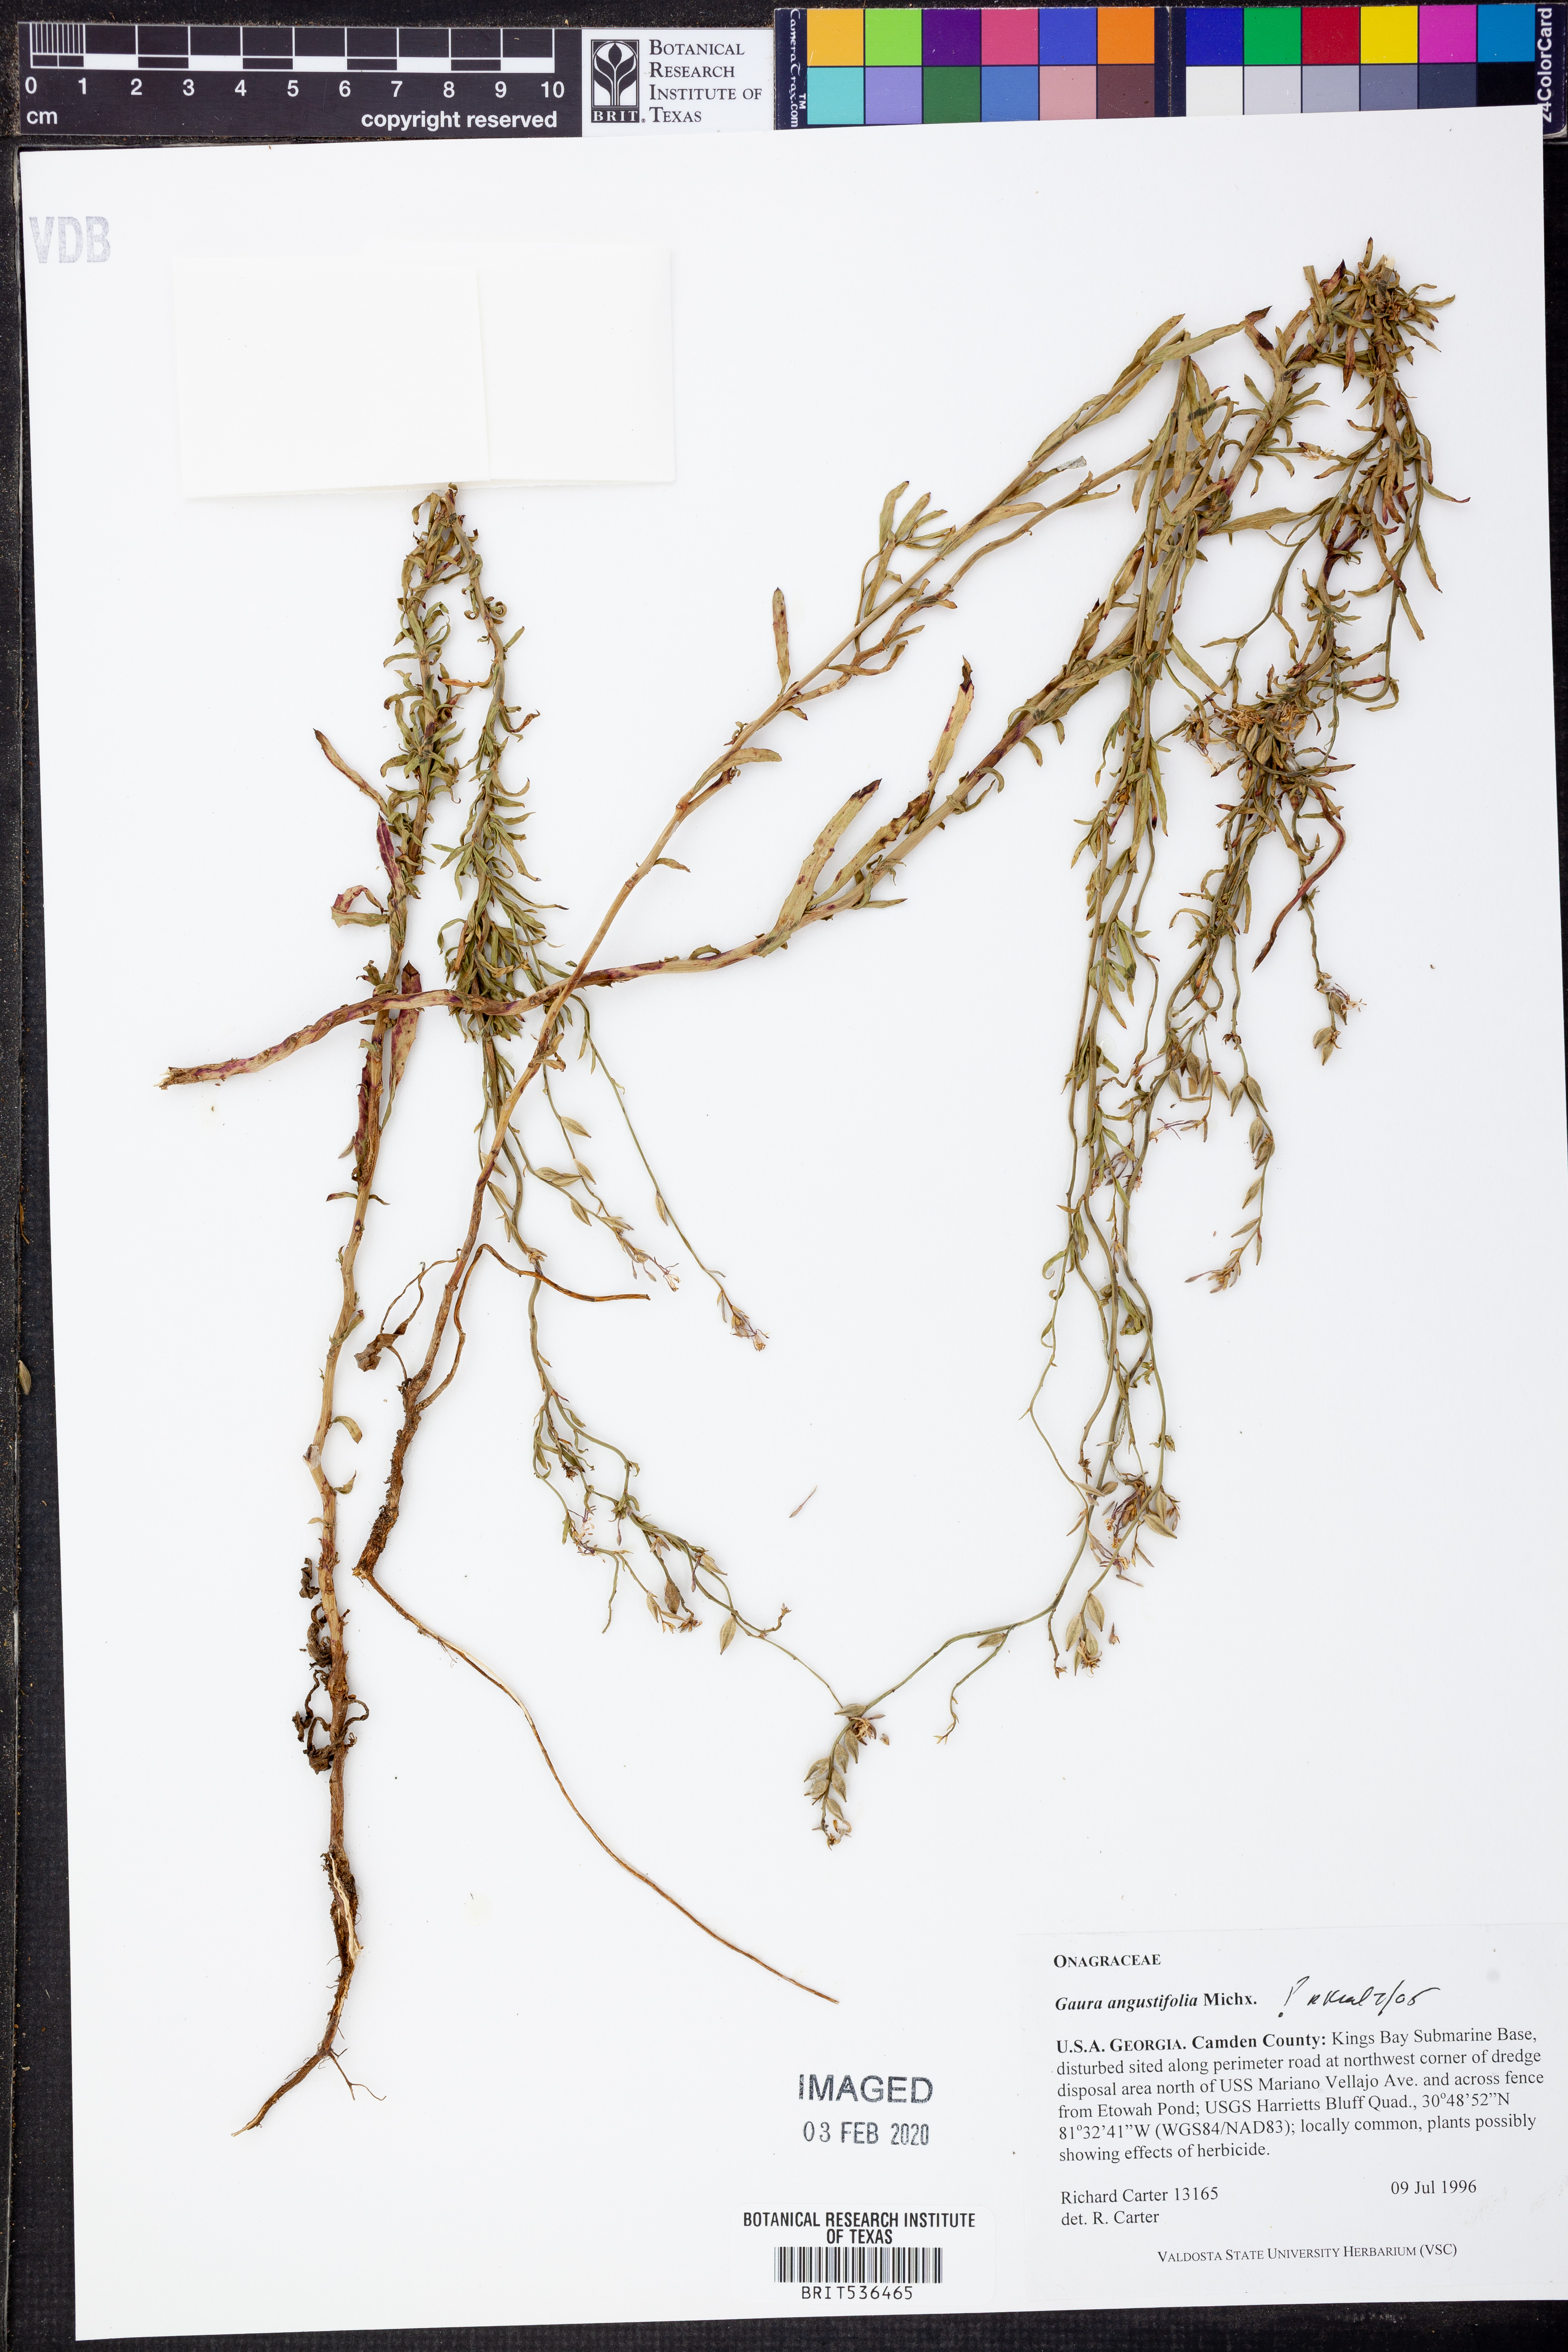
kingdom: Plantae
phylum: Tracheophyta
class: Magnoliopsida
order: Myrtales
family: Onagraceae
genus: Oenothera
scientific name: Oenothera simulans
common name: Southern beeblossom
